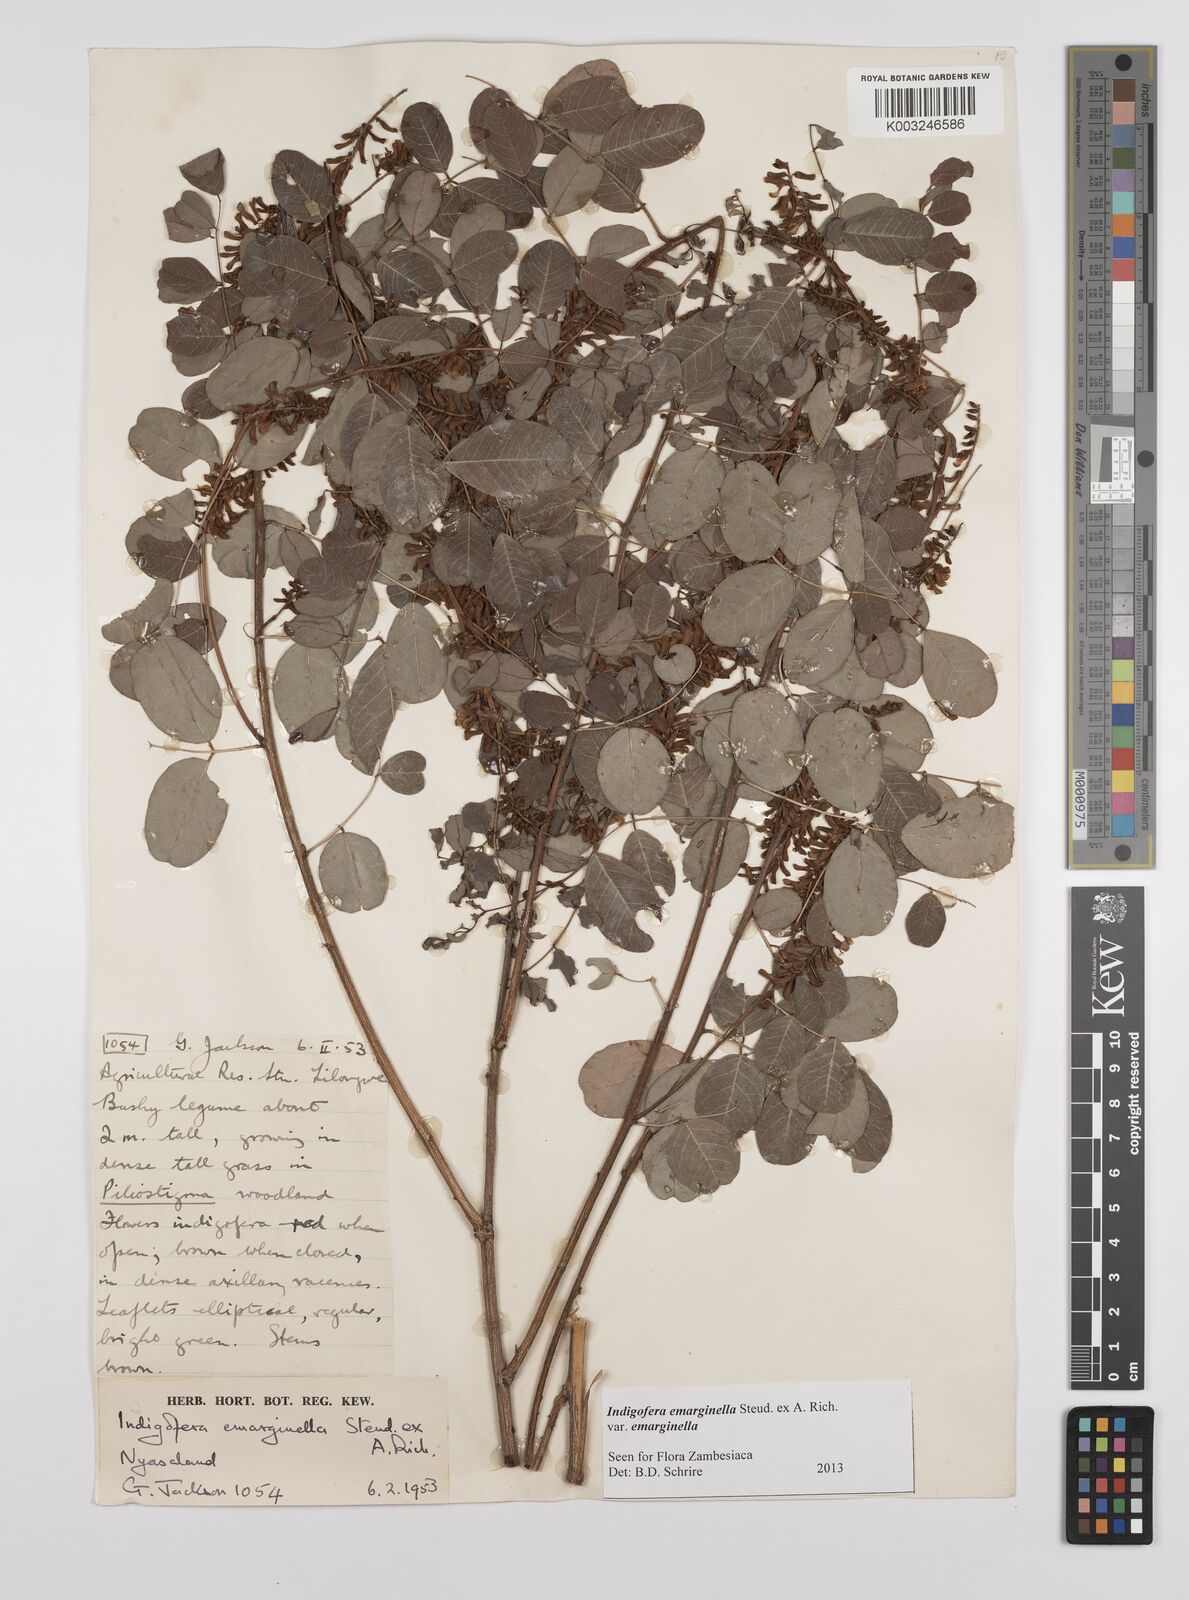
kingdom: Plantae
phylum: Tracheophyta
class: Magnoliopsida
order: Fabales
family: Fabaceae
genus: Indigofera
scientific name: Indigofera emarginella
